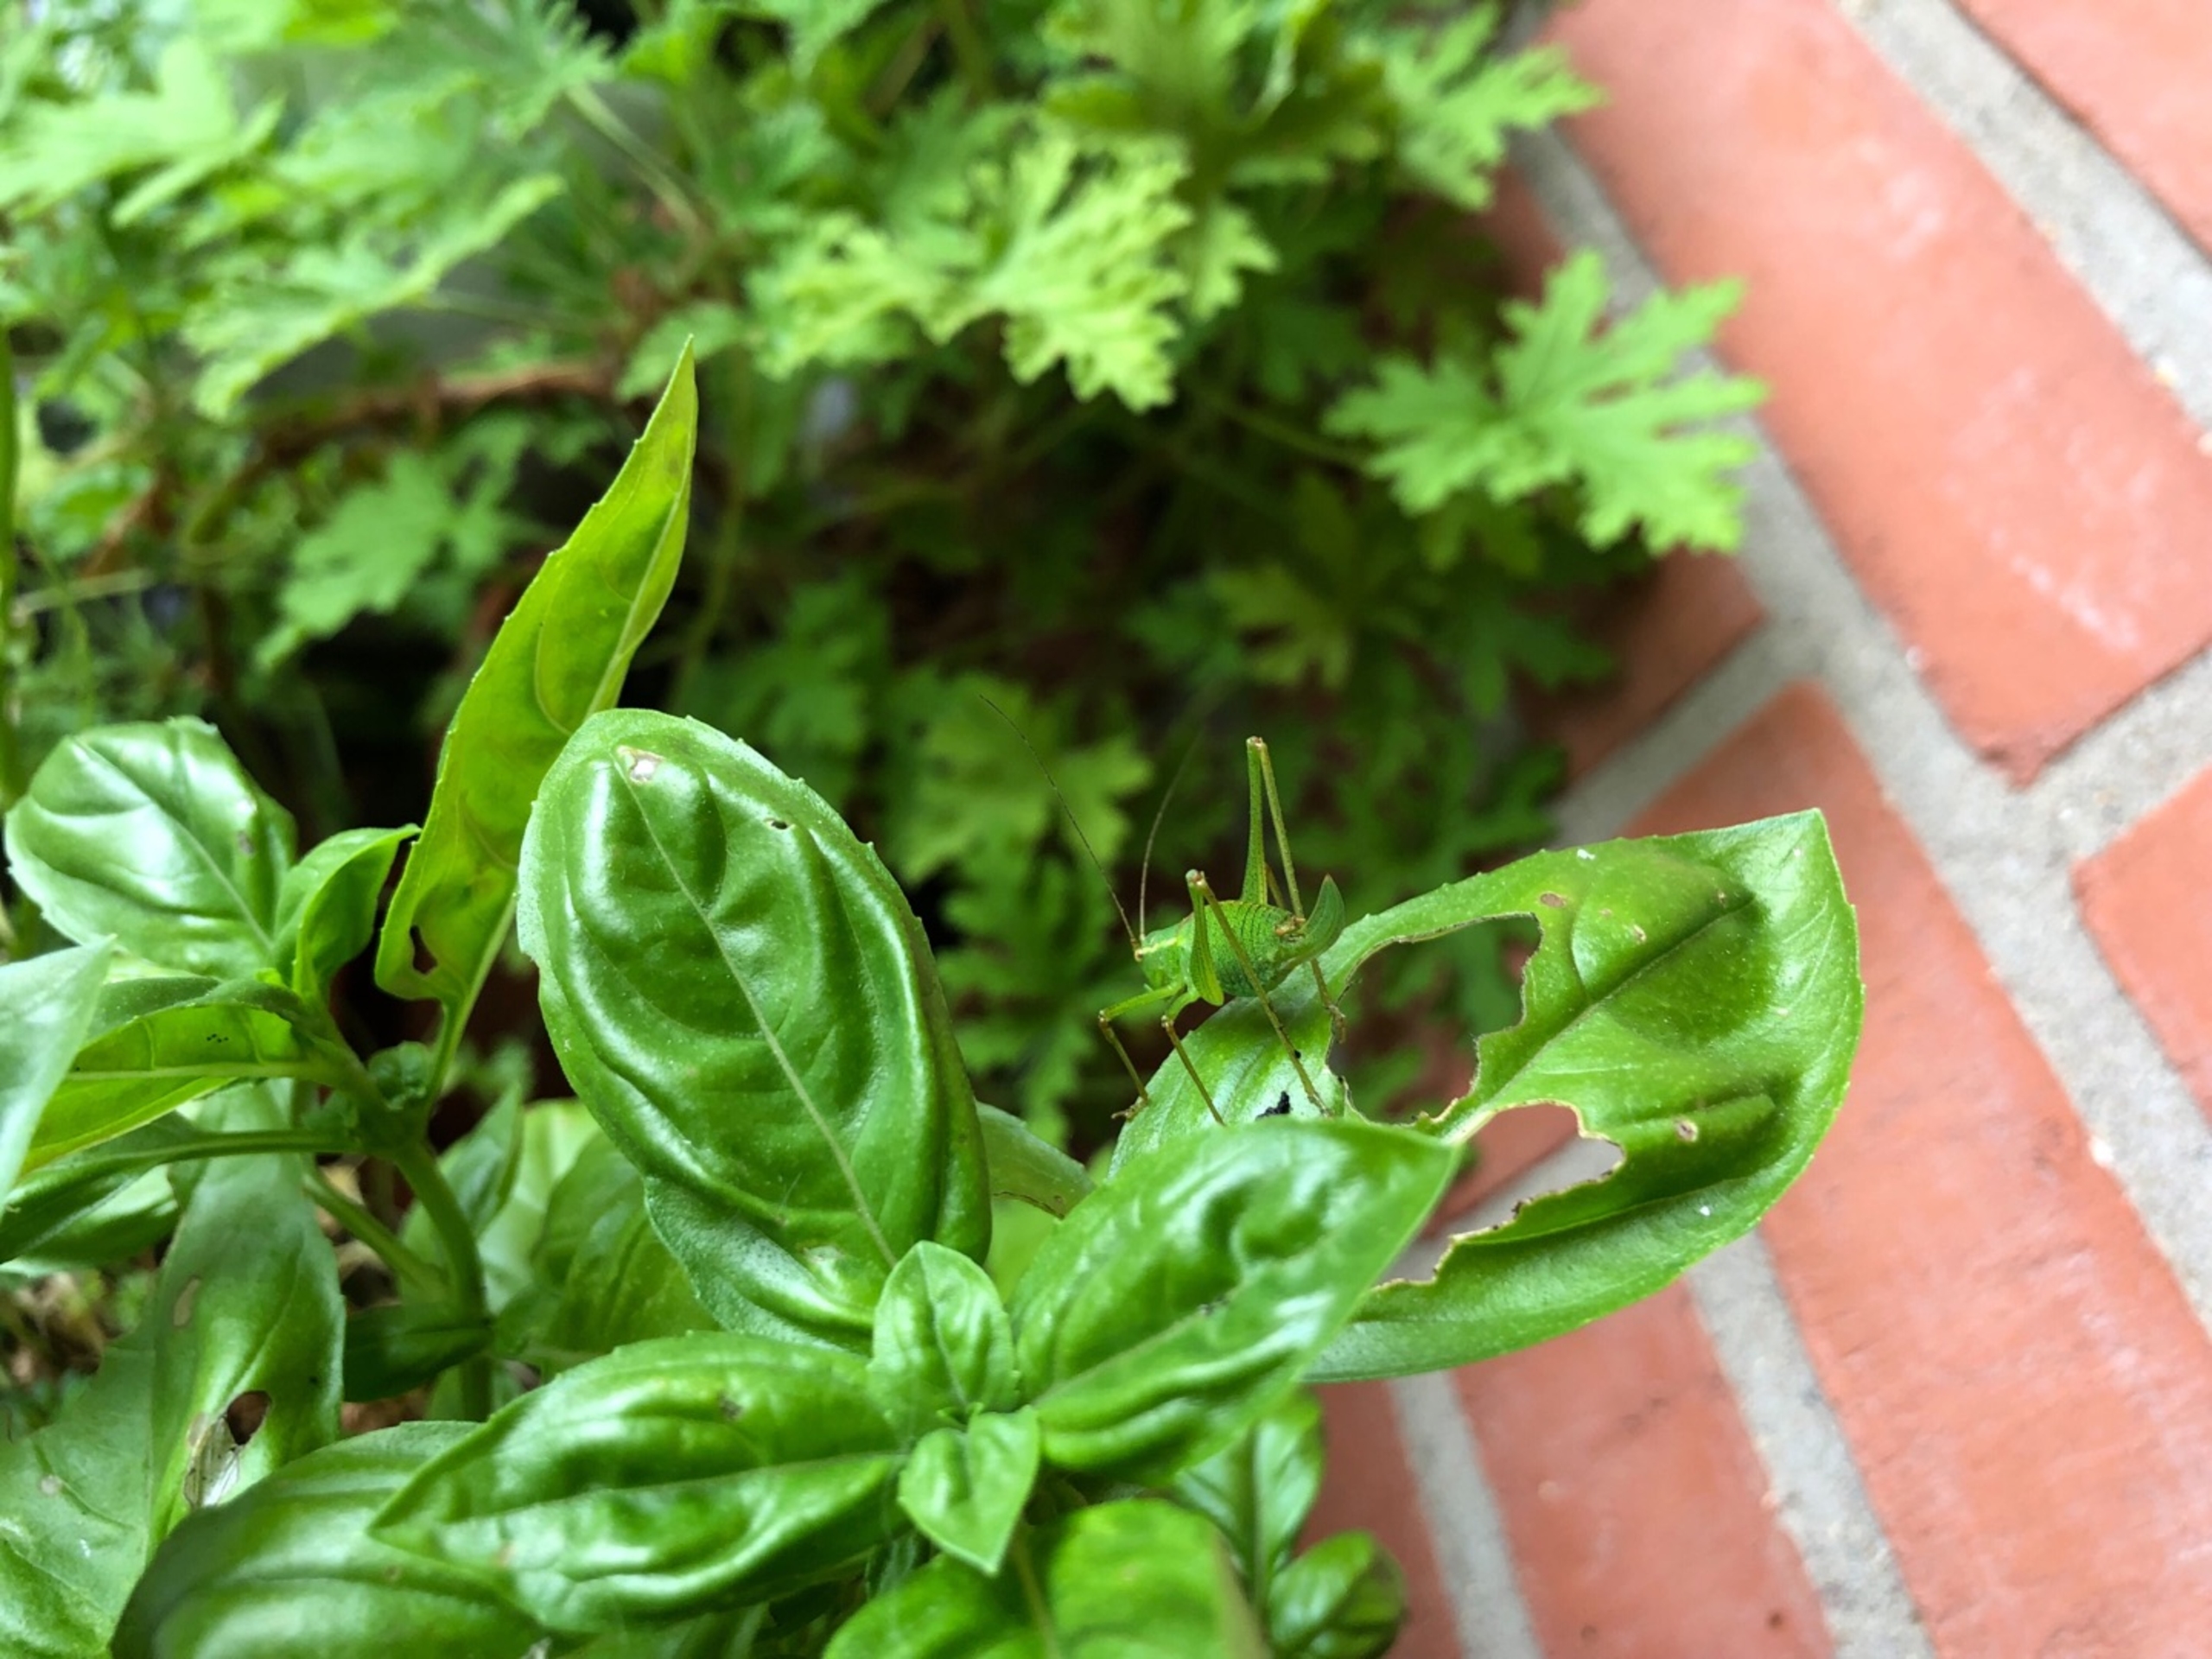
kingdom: Animalia
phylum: Arthropoda
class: Insecta
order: Orthoptera
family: Tettigoniidae
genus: Leptophyes
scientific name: Leptophyes punctatissima
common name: Krumknivgræshoppe
